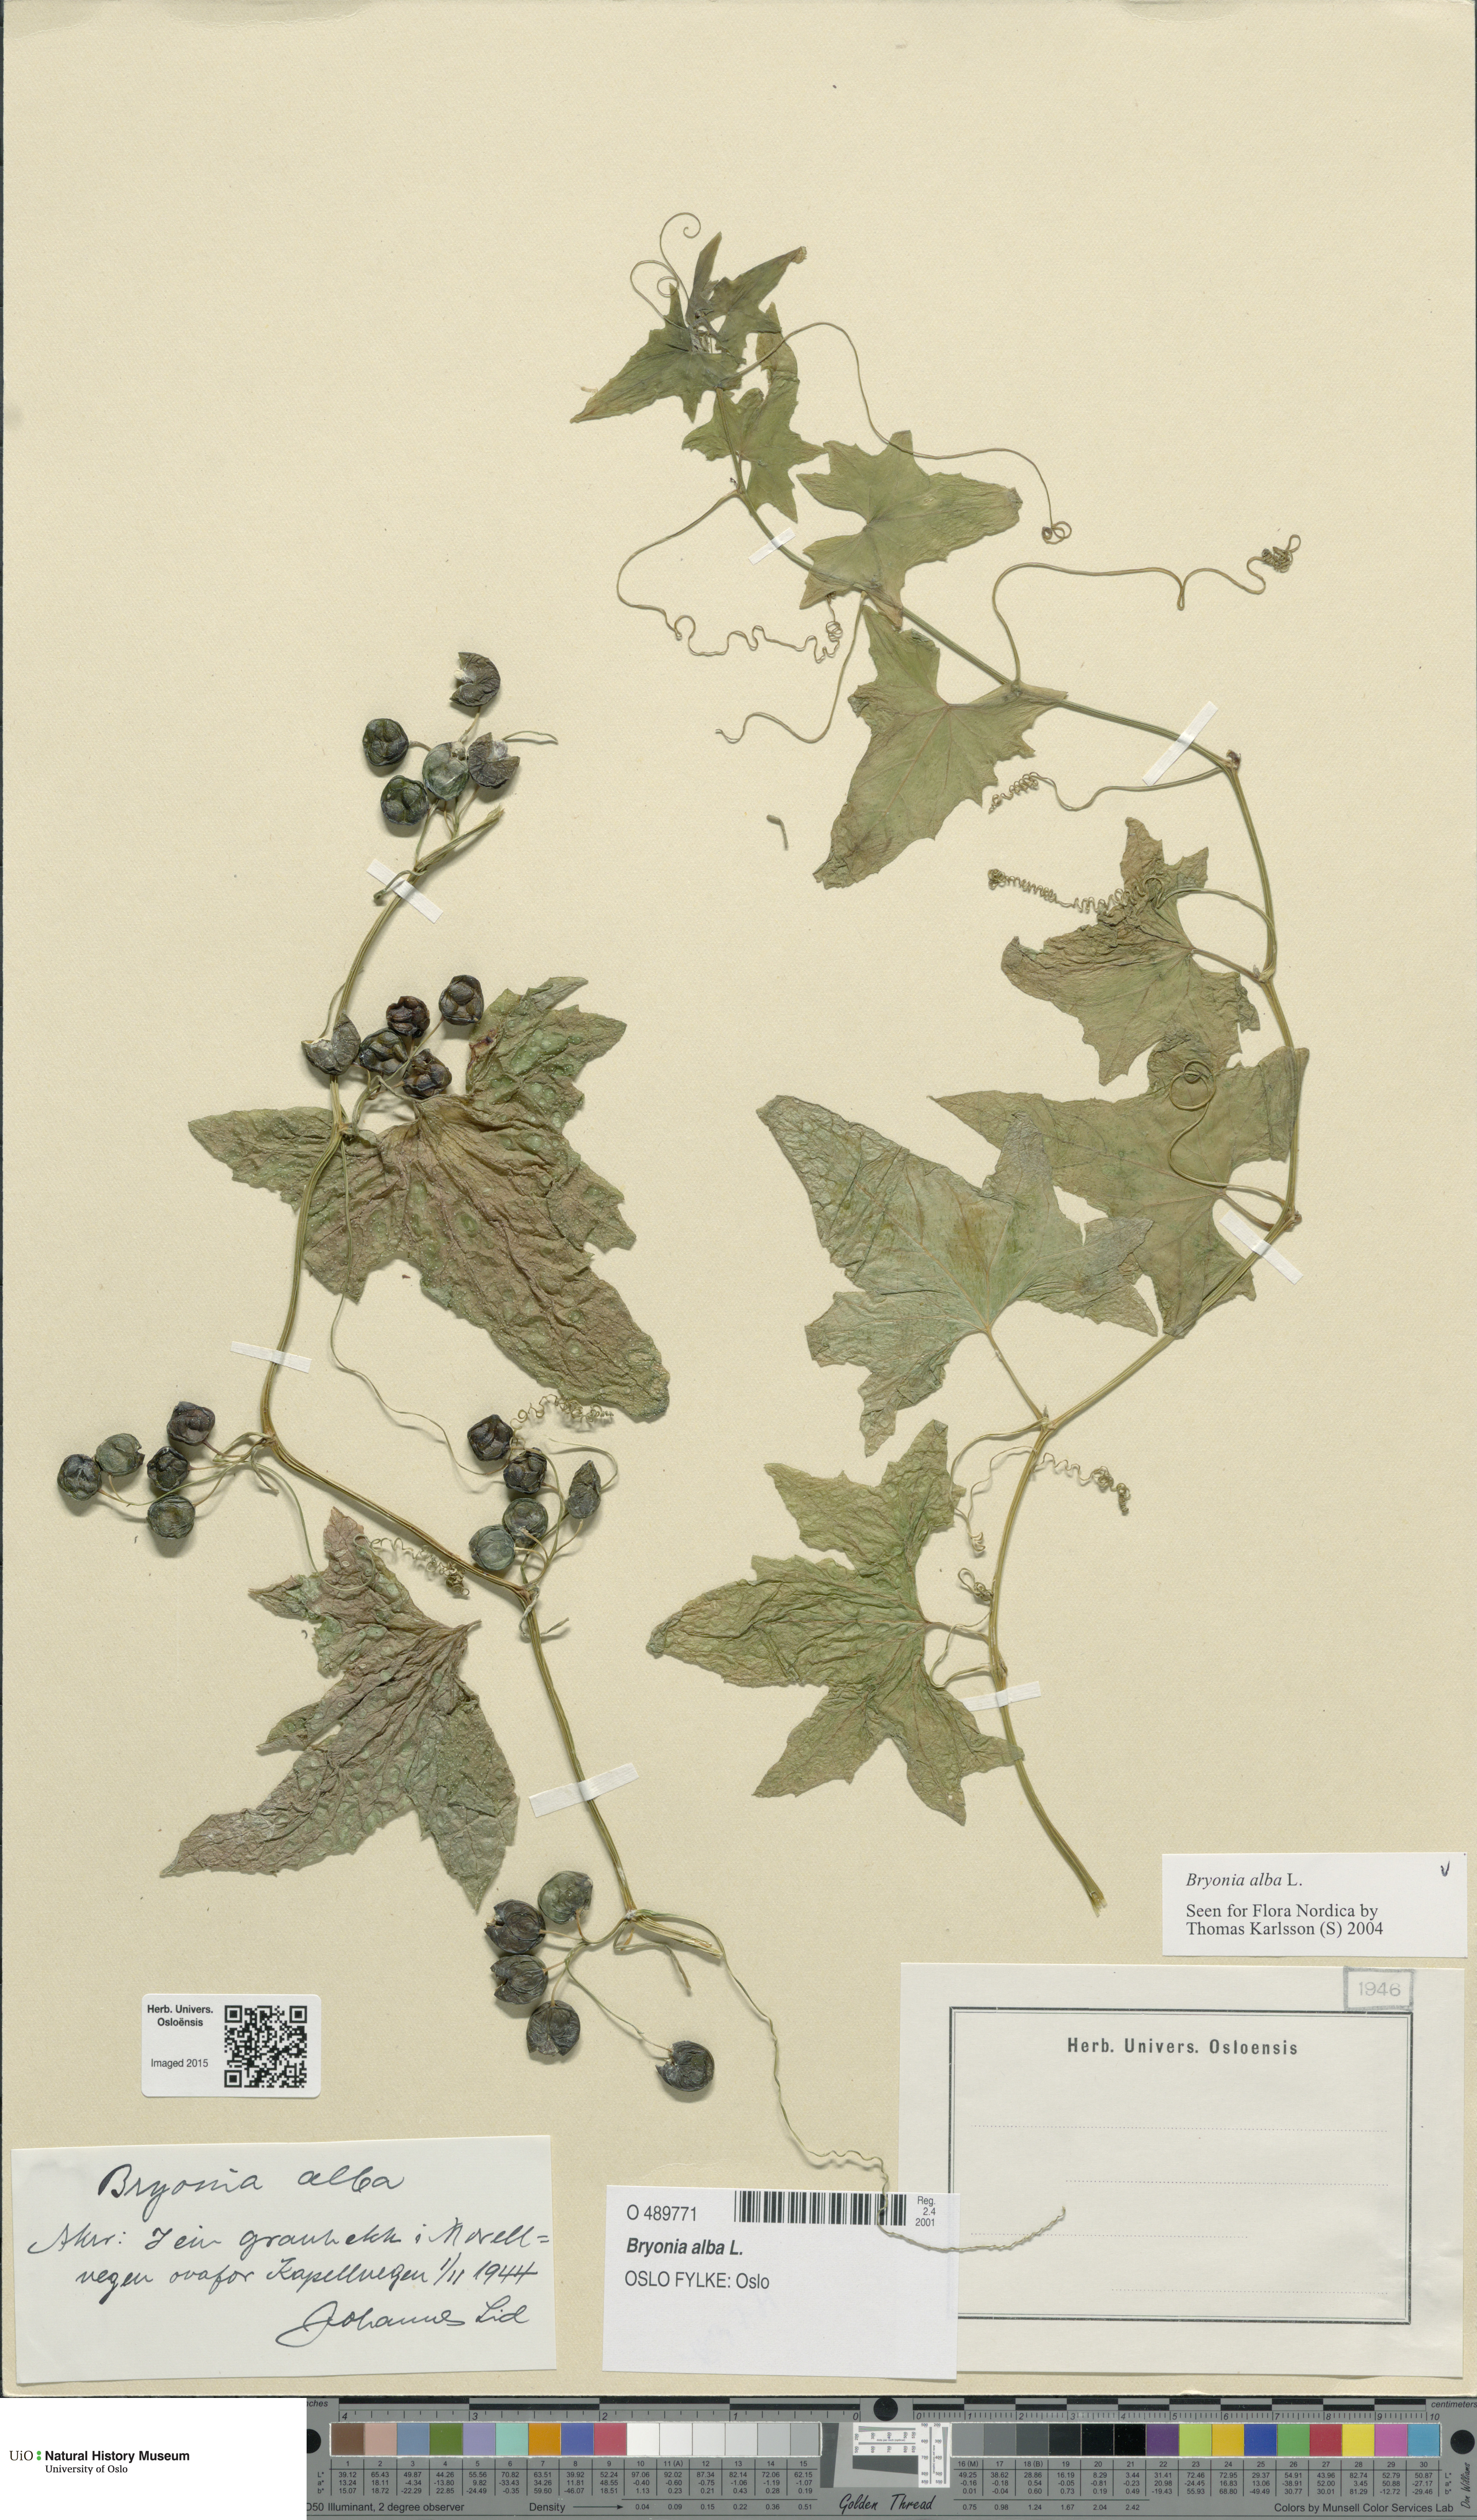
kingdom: Plantae
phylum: Tracheophyta
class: Magnoliopsida
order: Cucurbitales
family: Cucurbitaceae
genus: Bryonia
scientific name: Bryonia alba
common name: White bryony
